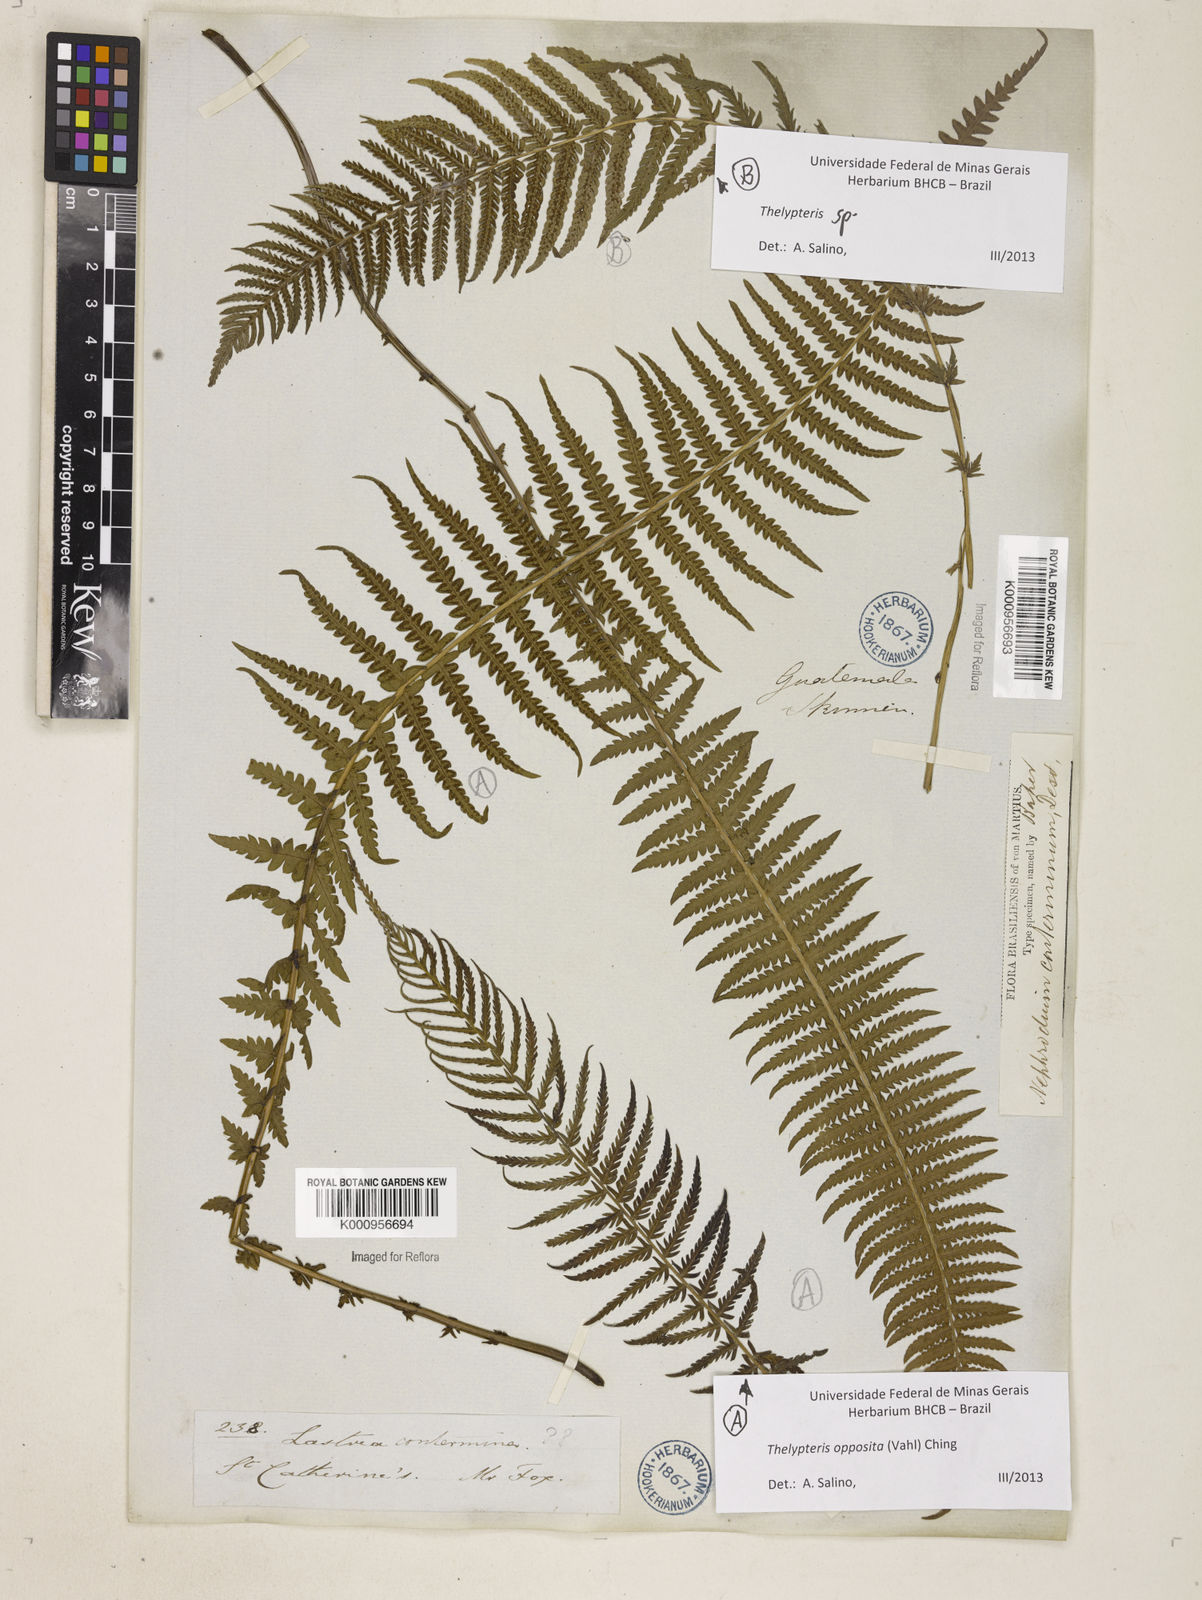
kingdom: Plantae
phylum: Tracheophyta
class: Polypodiopsida
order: Polypodiales
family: Thelypteridaceae
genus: Amauropelta
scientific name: Amauropelta opposita
